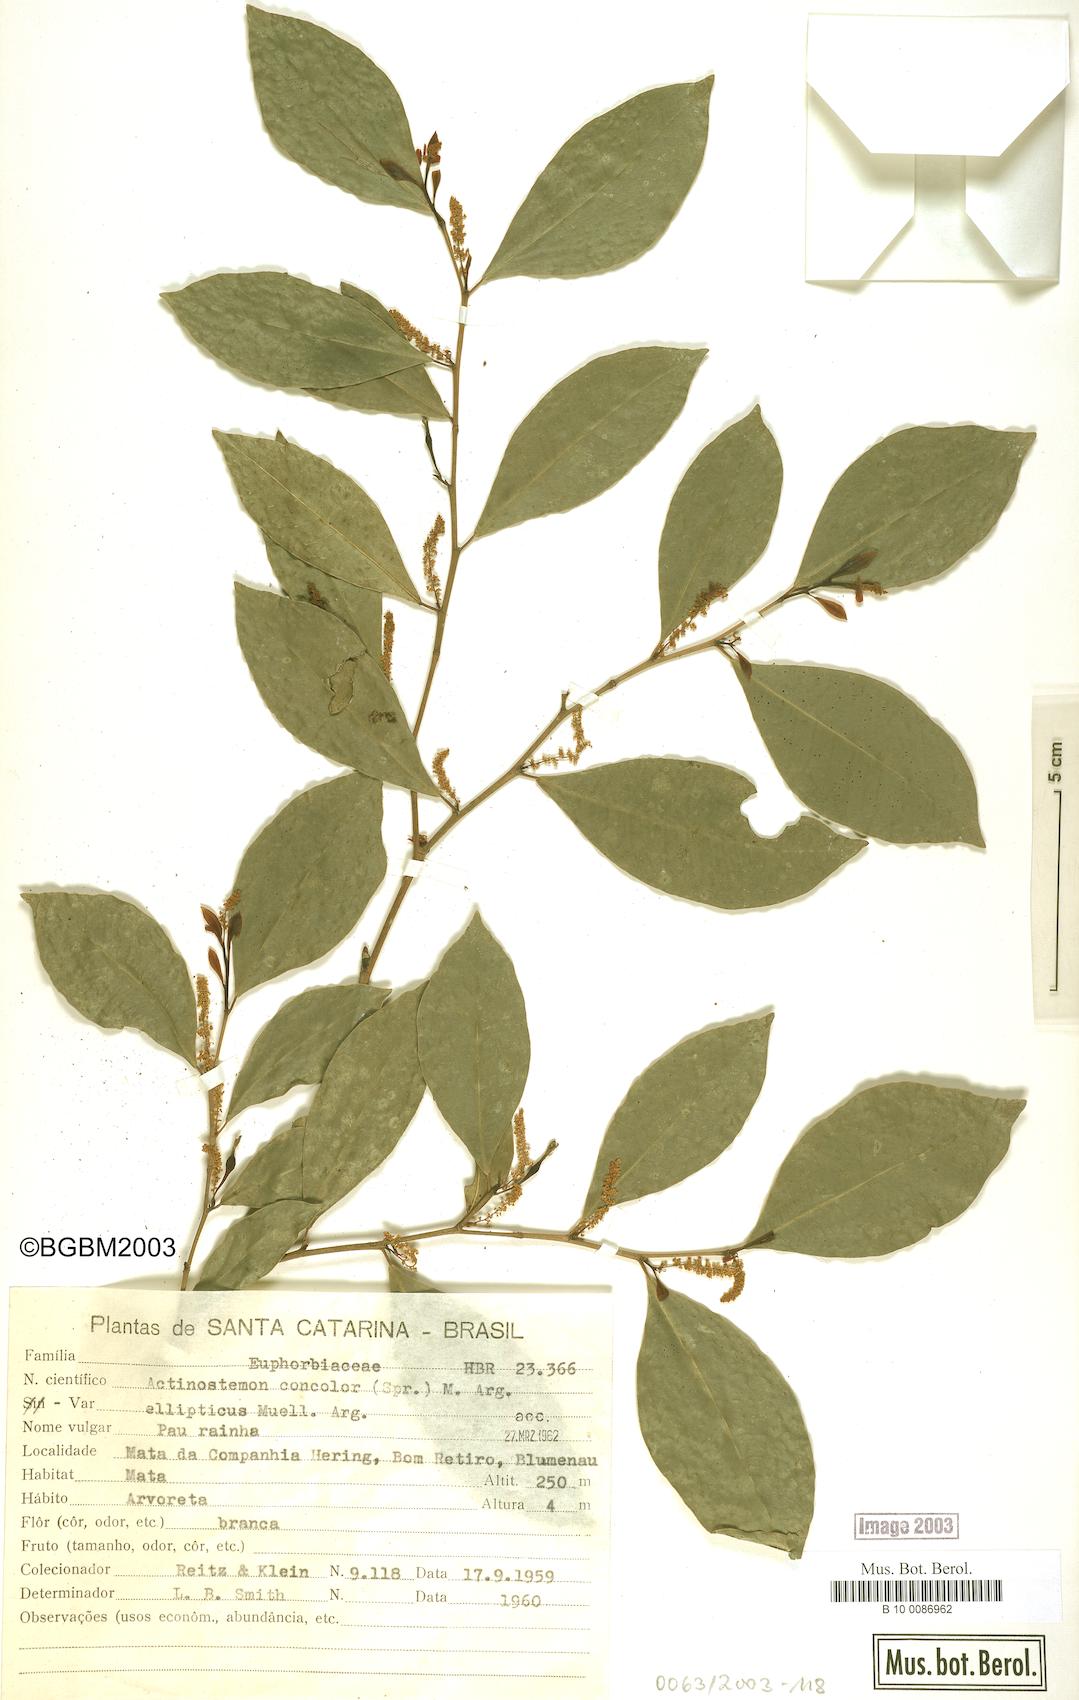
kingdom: Plantae
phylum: Tracheophyta
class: Magnoliopsida
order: Malpighiales
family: Euphorbiaceae
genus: Actinostemon
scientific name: Actinostemon concolor
